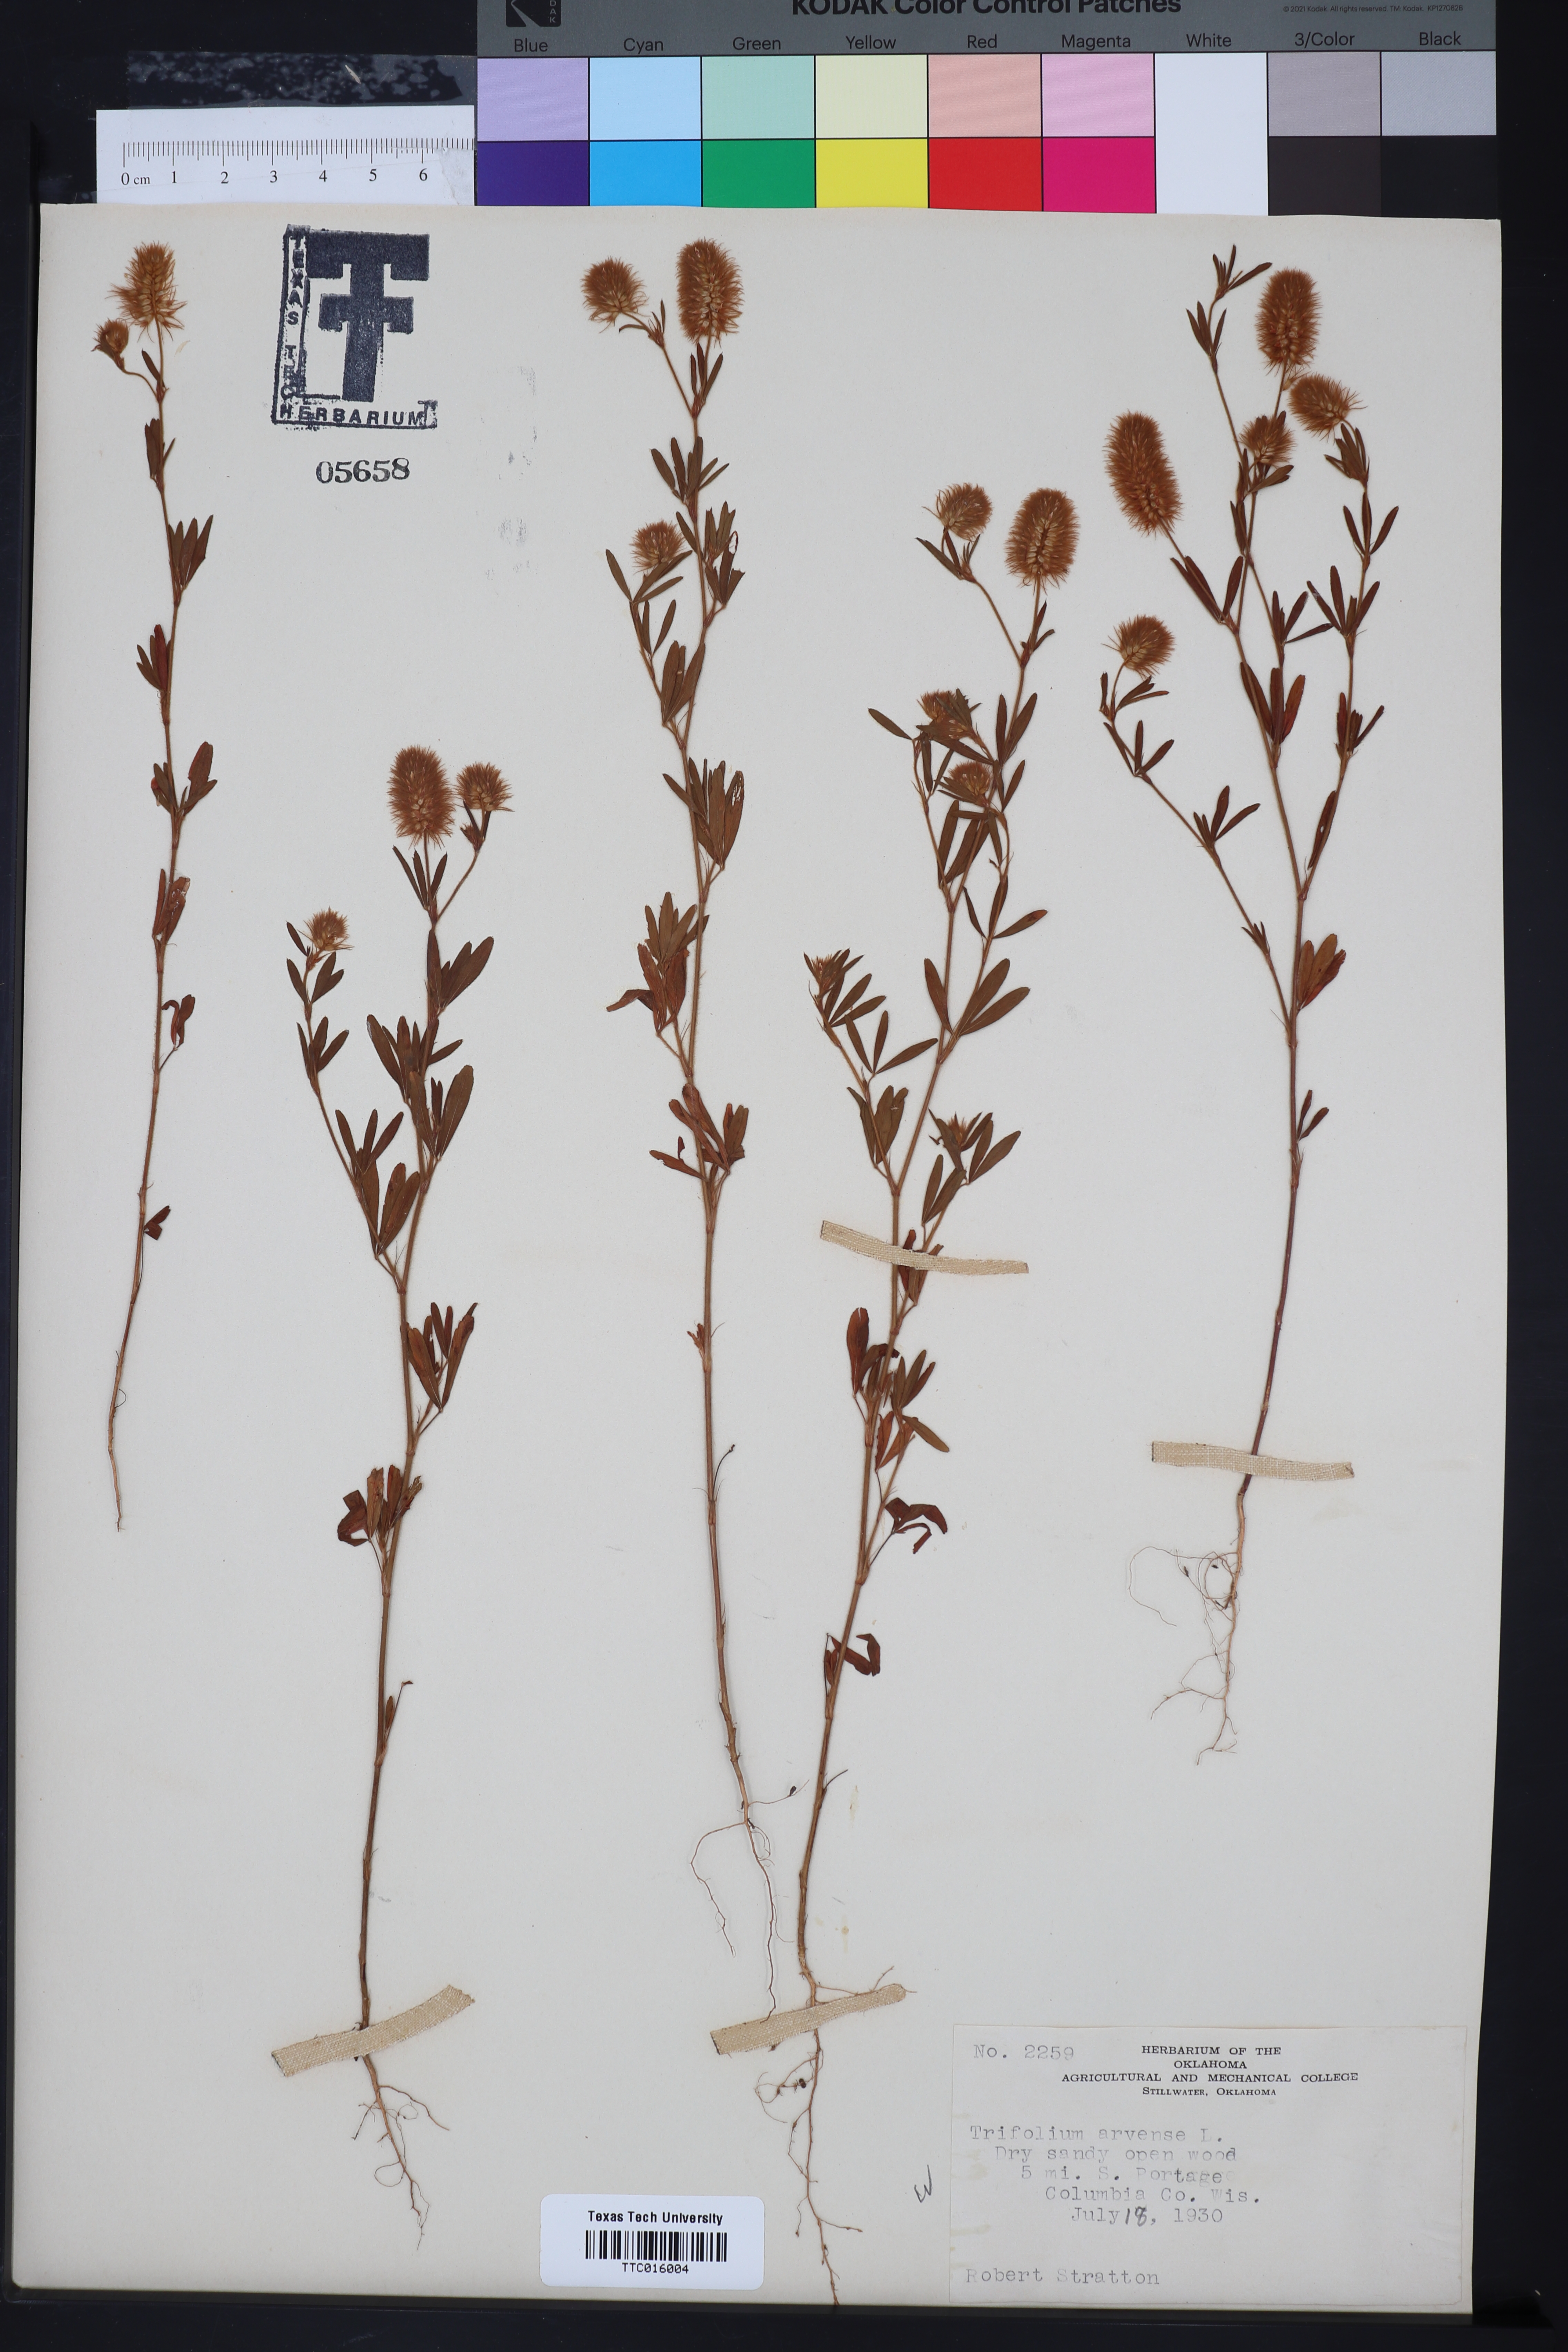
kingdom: Plantae
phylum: Tracheophyta
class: Magnoliopsida
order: Fabales
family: Fabaceae
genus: Trifolium
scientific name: Trifolium arvense
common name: Hare's-foot clover
